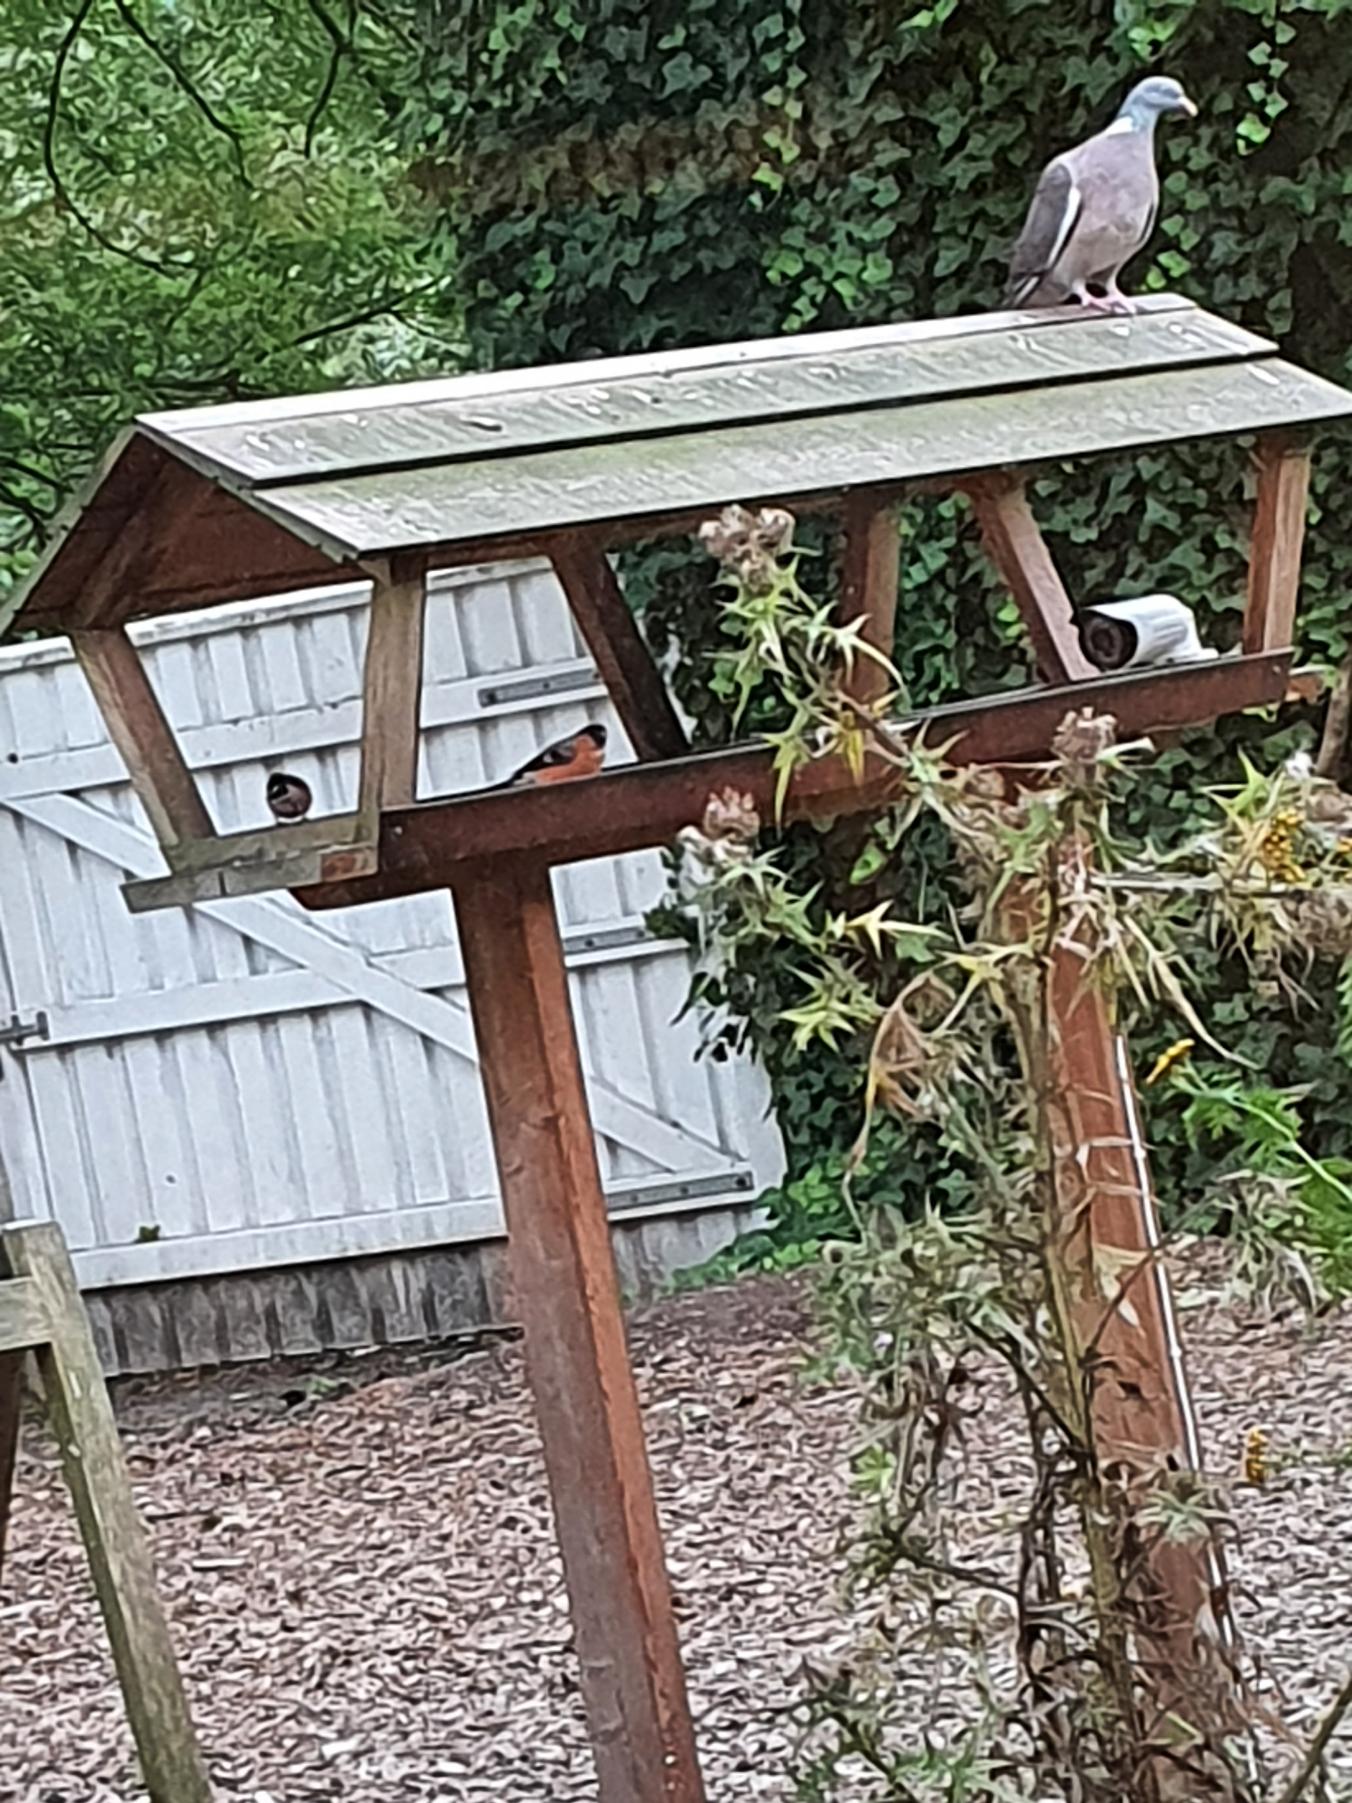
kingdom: Animalia
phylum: Chordata
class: Aves
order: Passeriformes
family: Fringillidae
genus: Pyrrhula
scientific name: Pyrrhula pyrrhula
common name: Dompap
